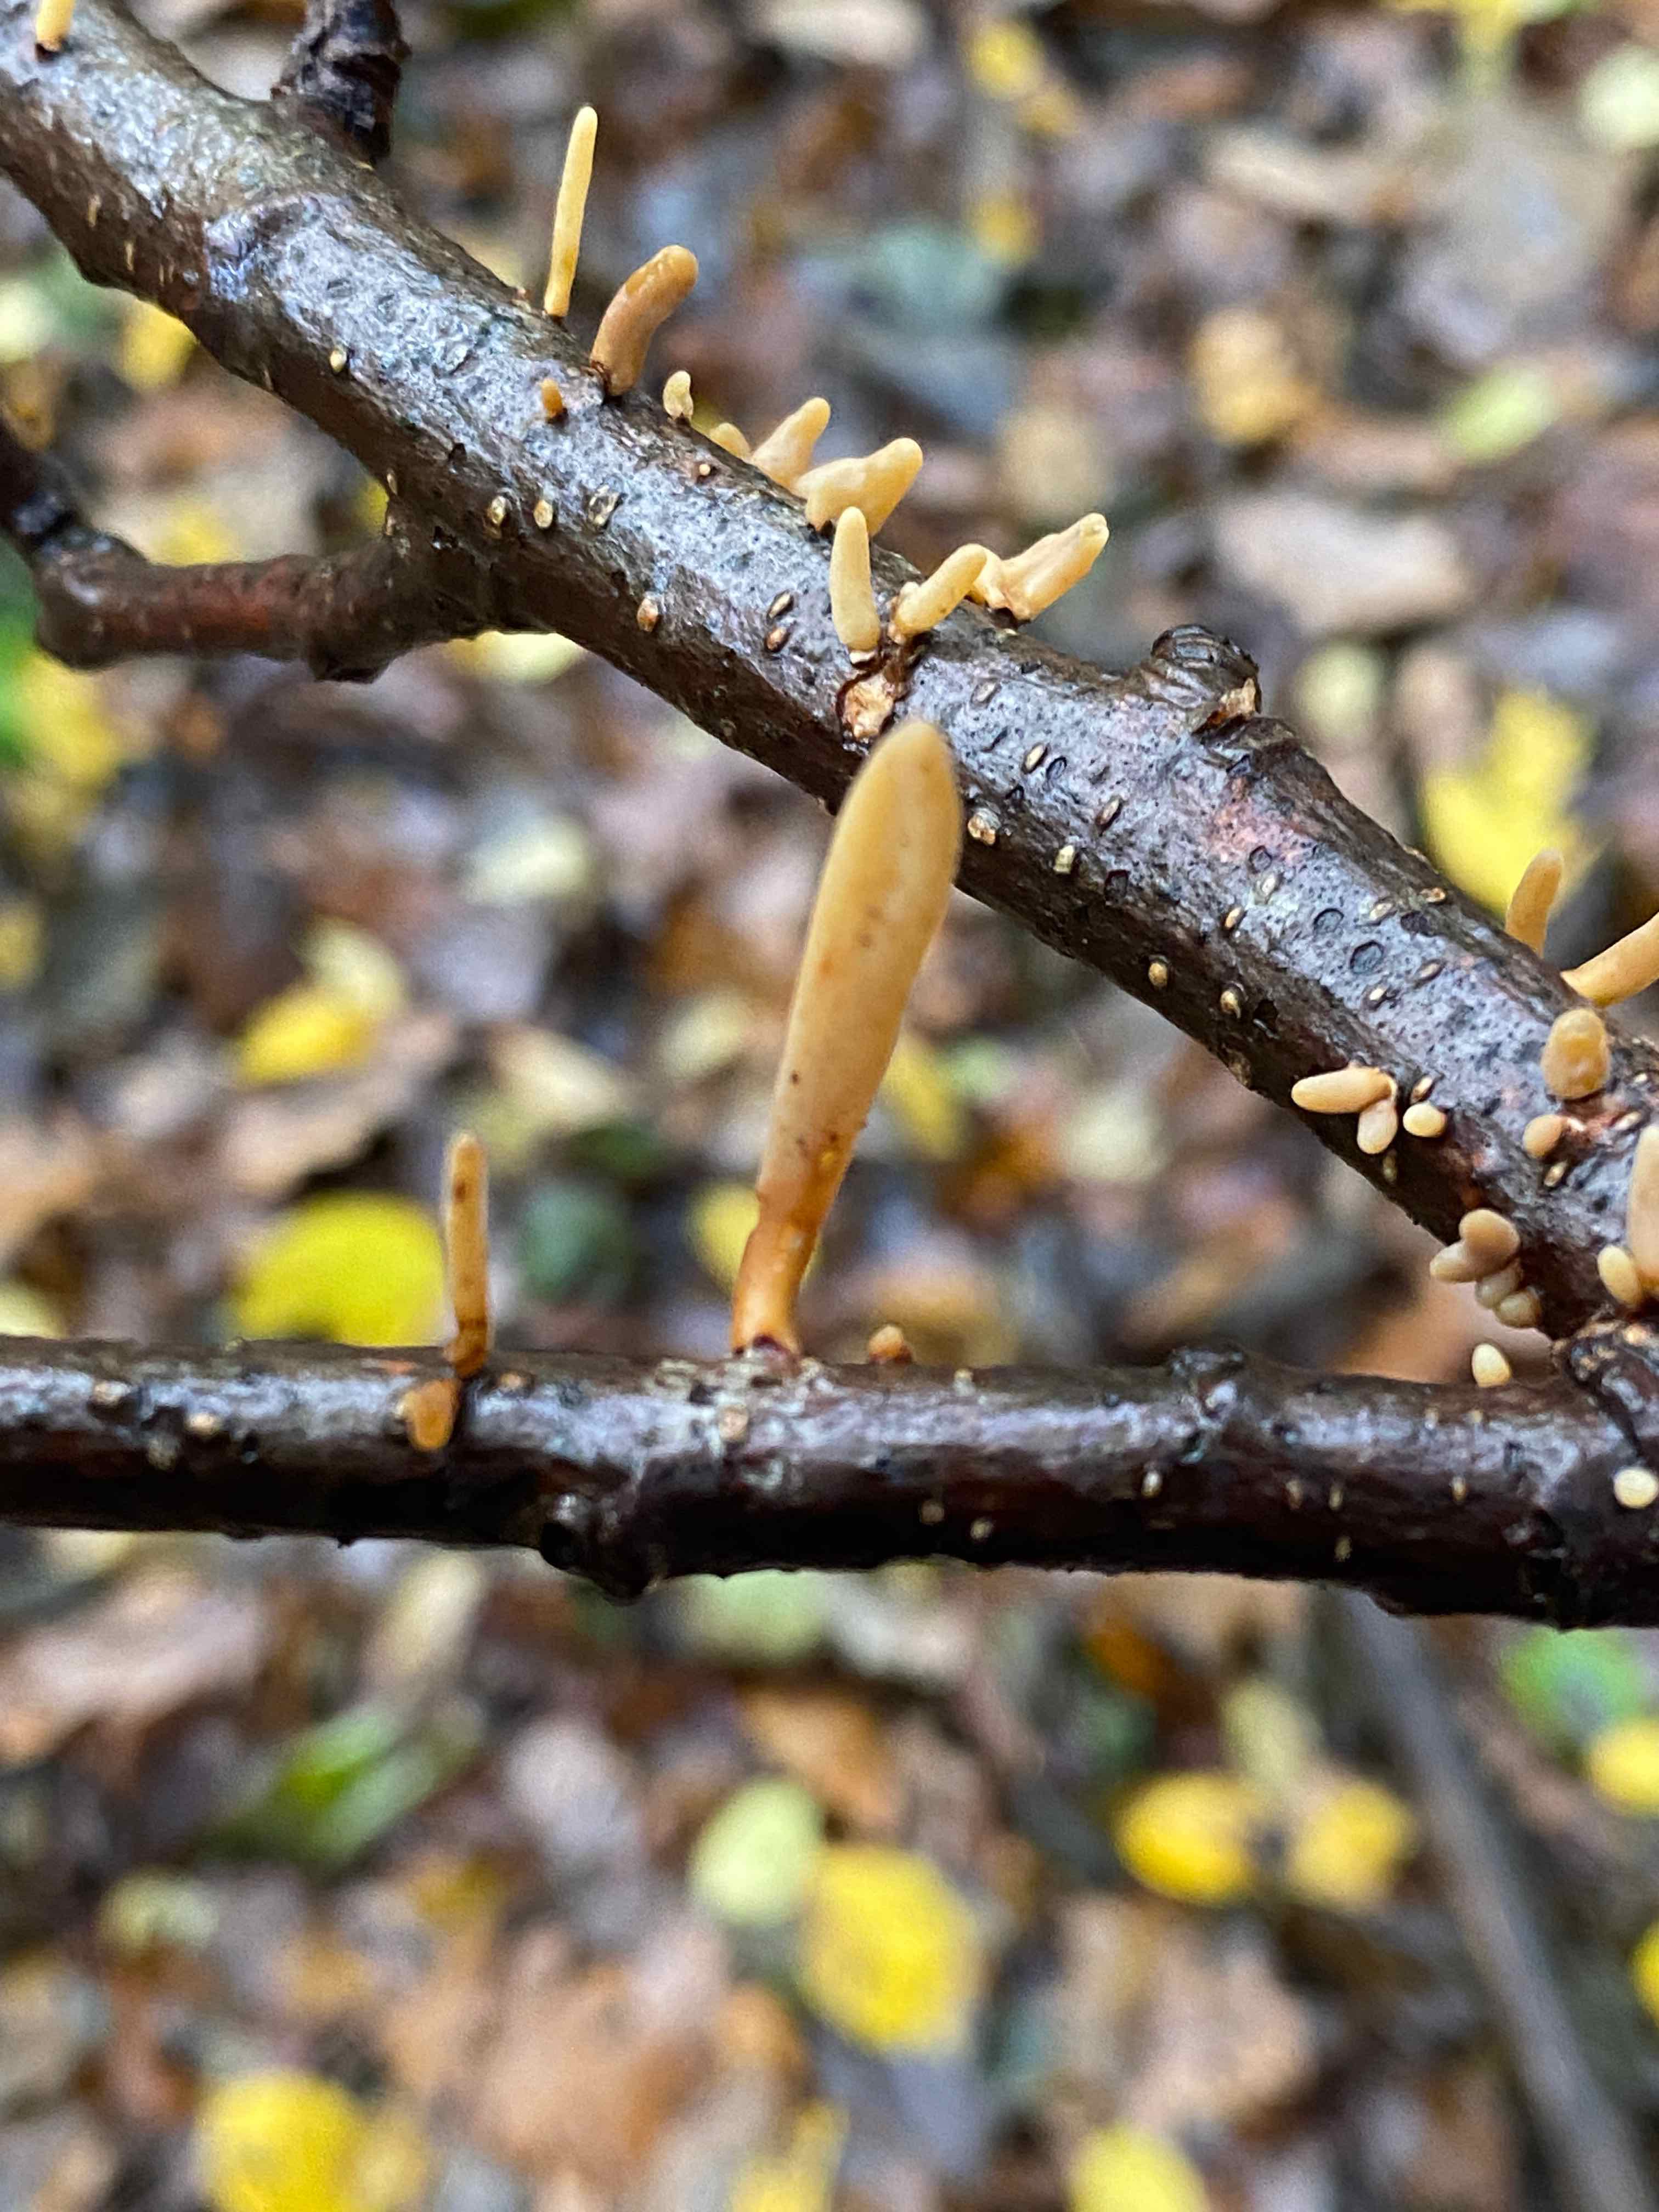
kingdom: Fungi
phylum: Basidiomycota
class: Agaricomycetes
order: Agaricales
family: Typhulaceae
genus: Typhula
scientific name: Typhula contorta
